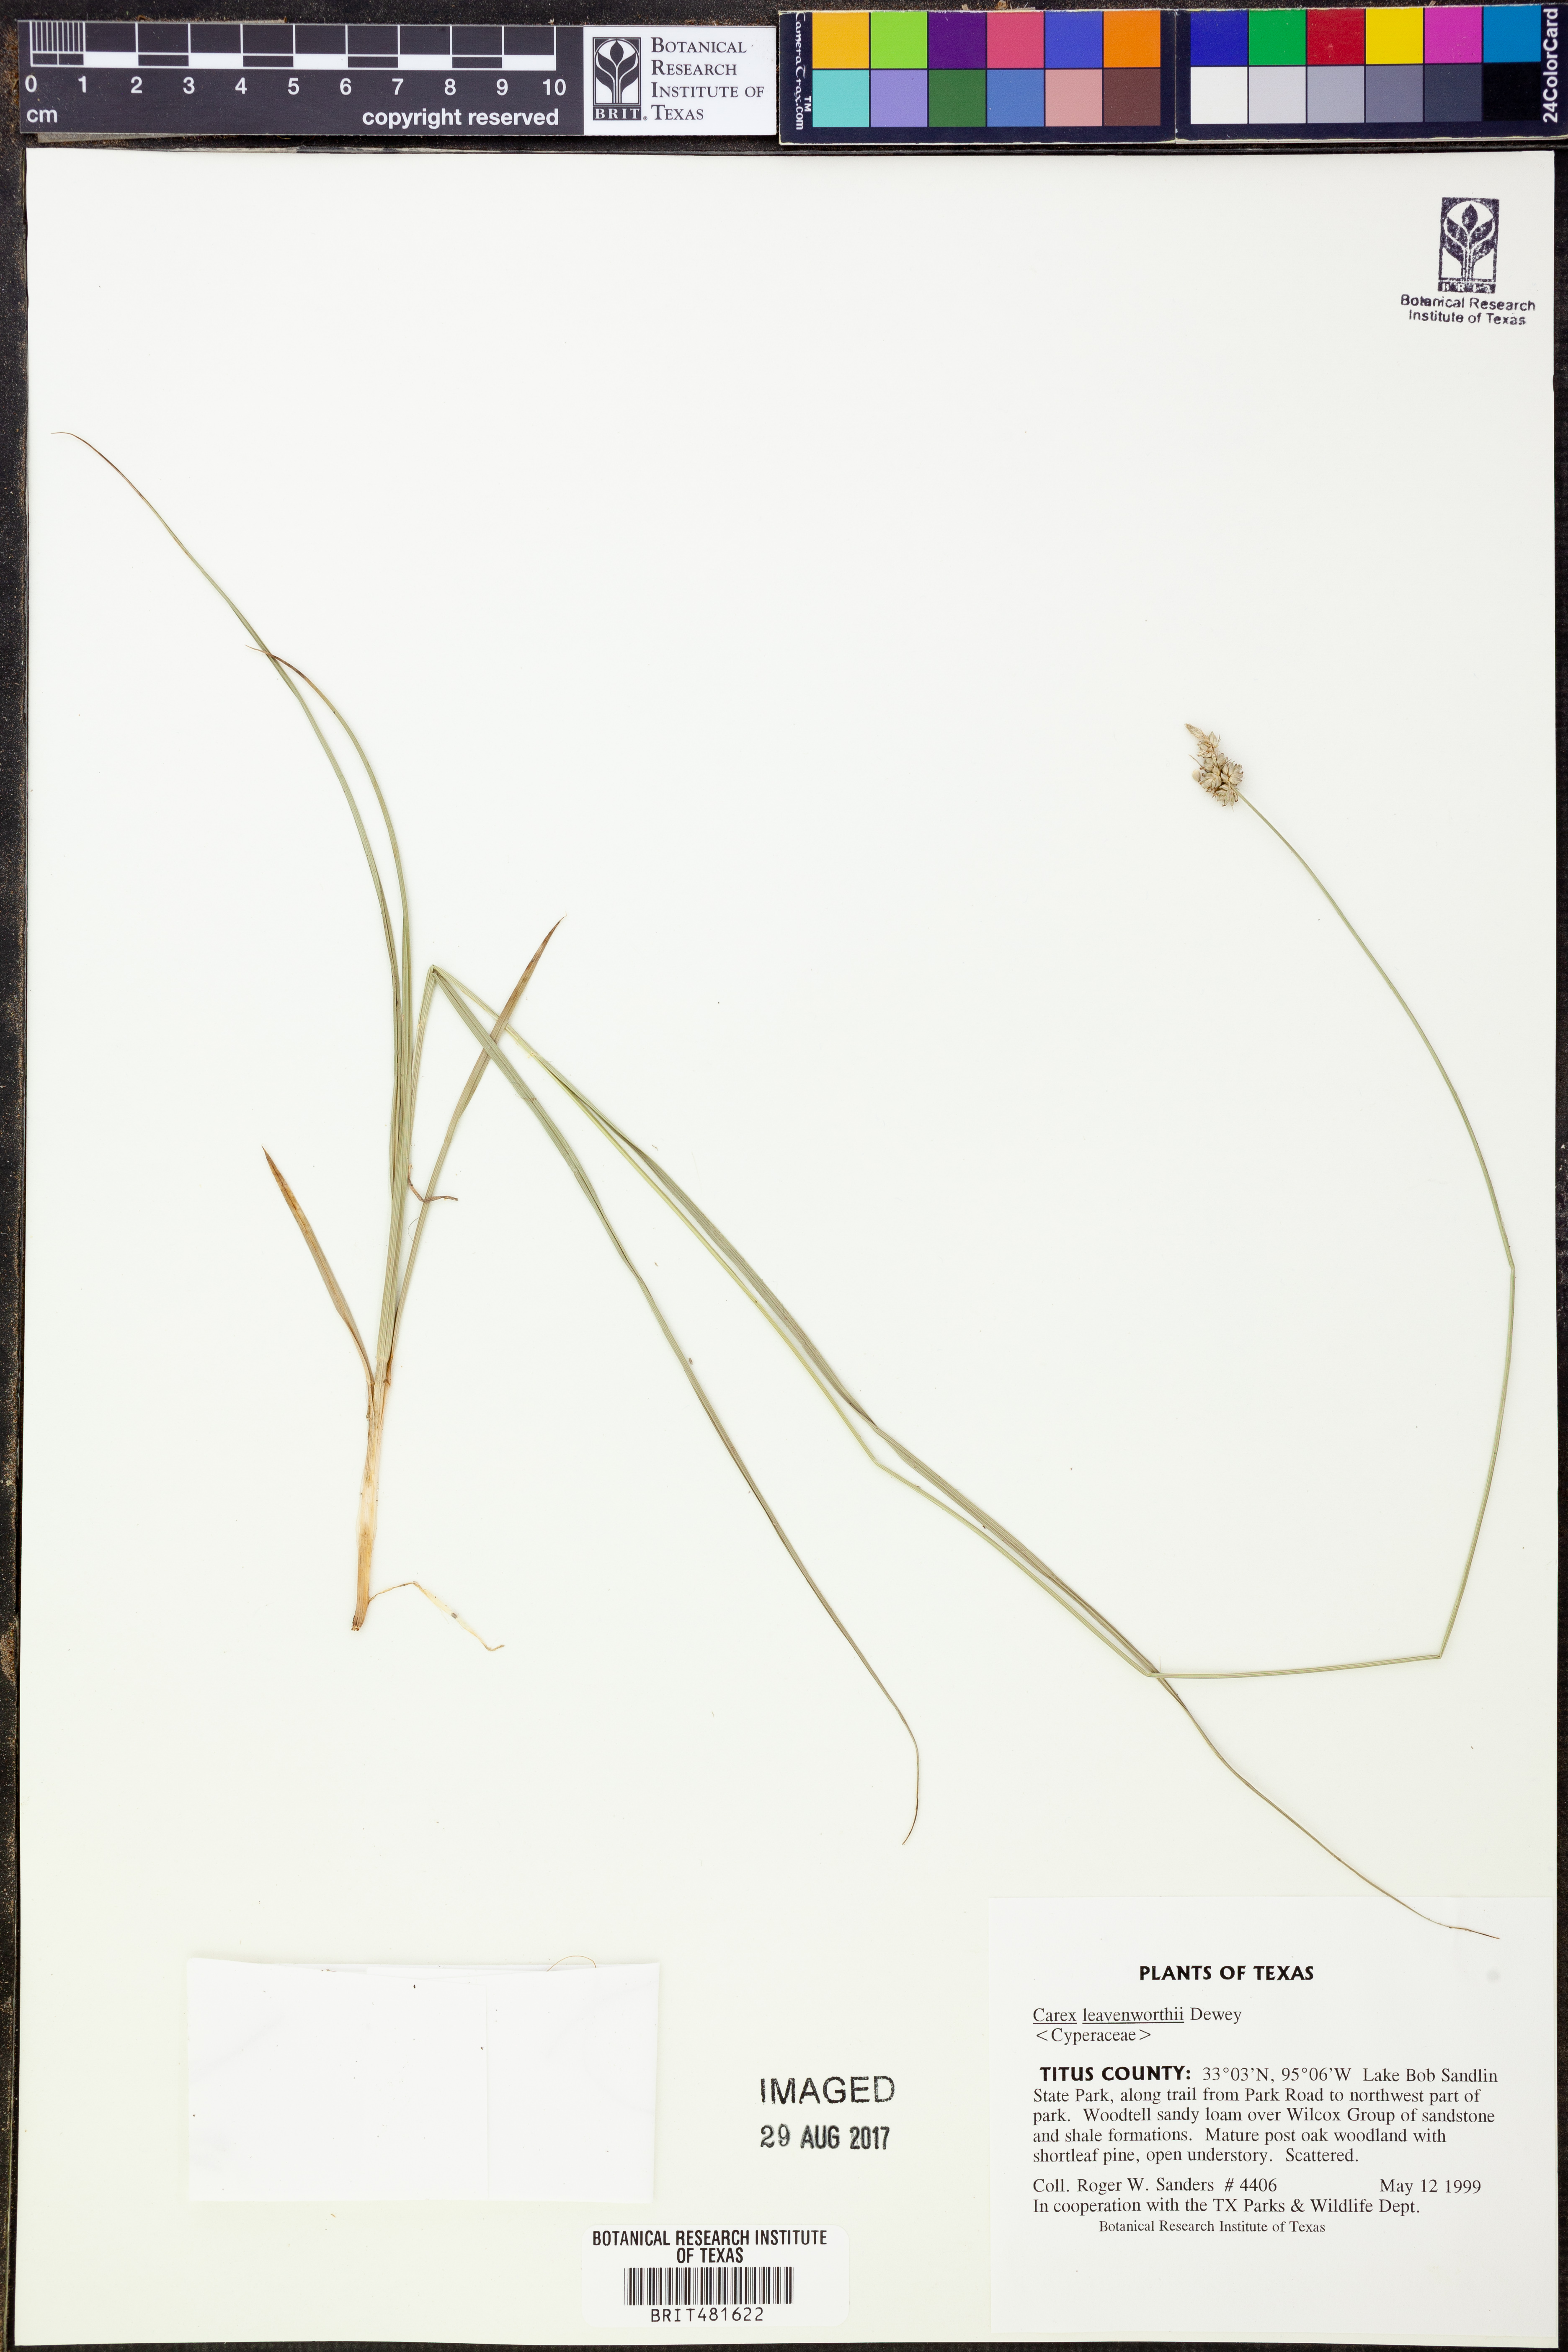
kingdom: Plantae
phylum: Tracheophyta
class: Liliopsida
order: Poales
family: Cyperaceae
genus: Carex
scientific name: Carex leavenworthii
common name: Leavenworth's bracted sedge
